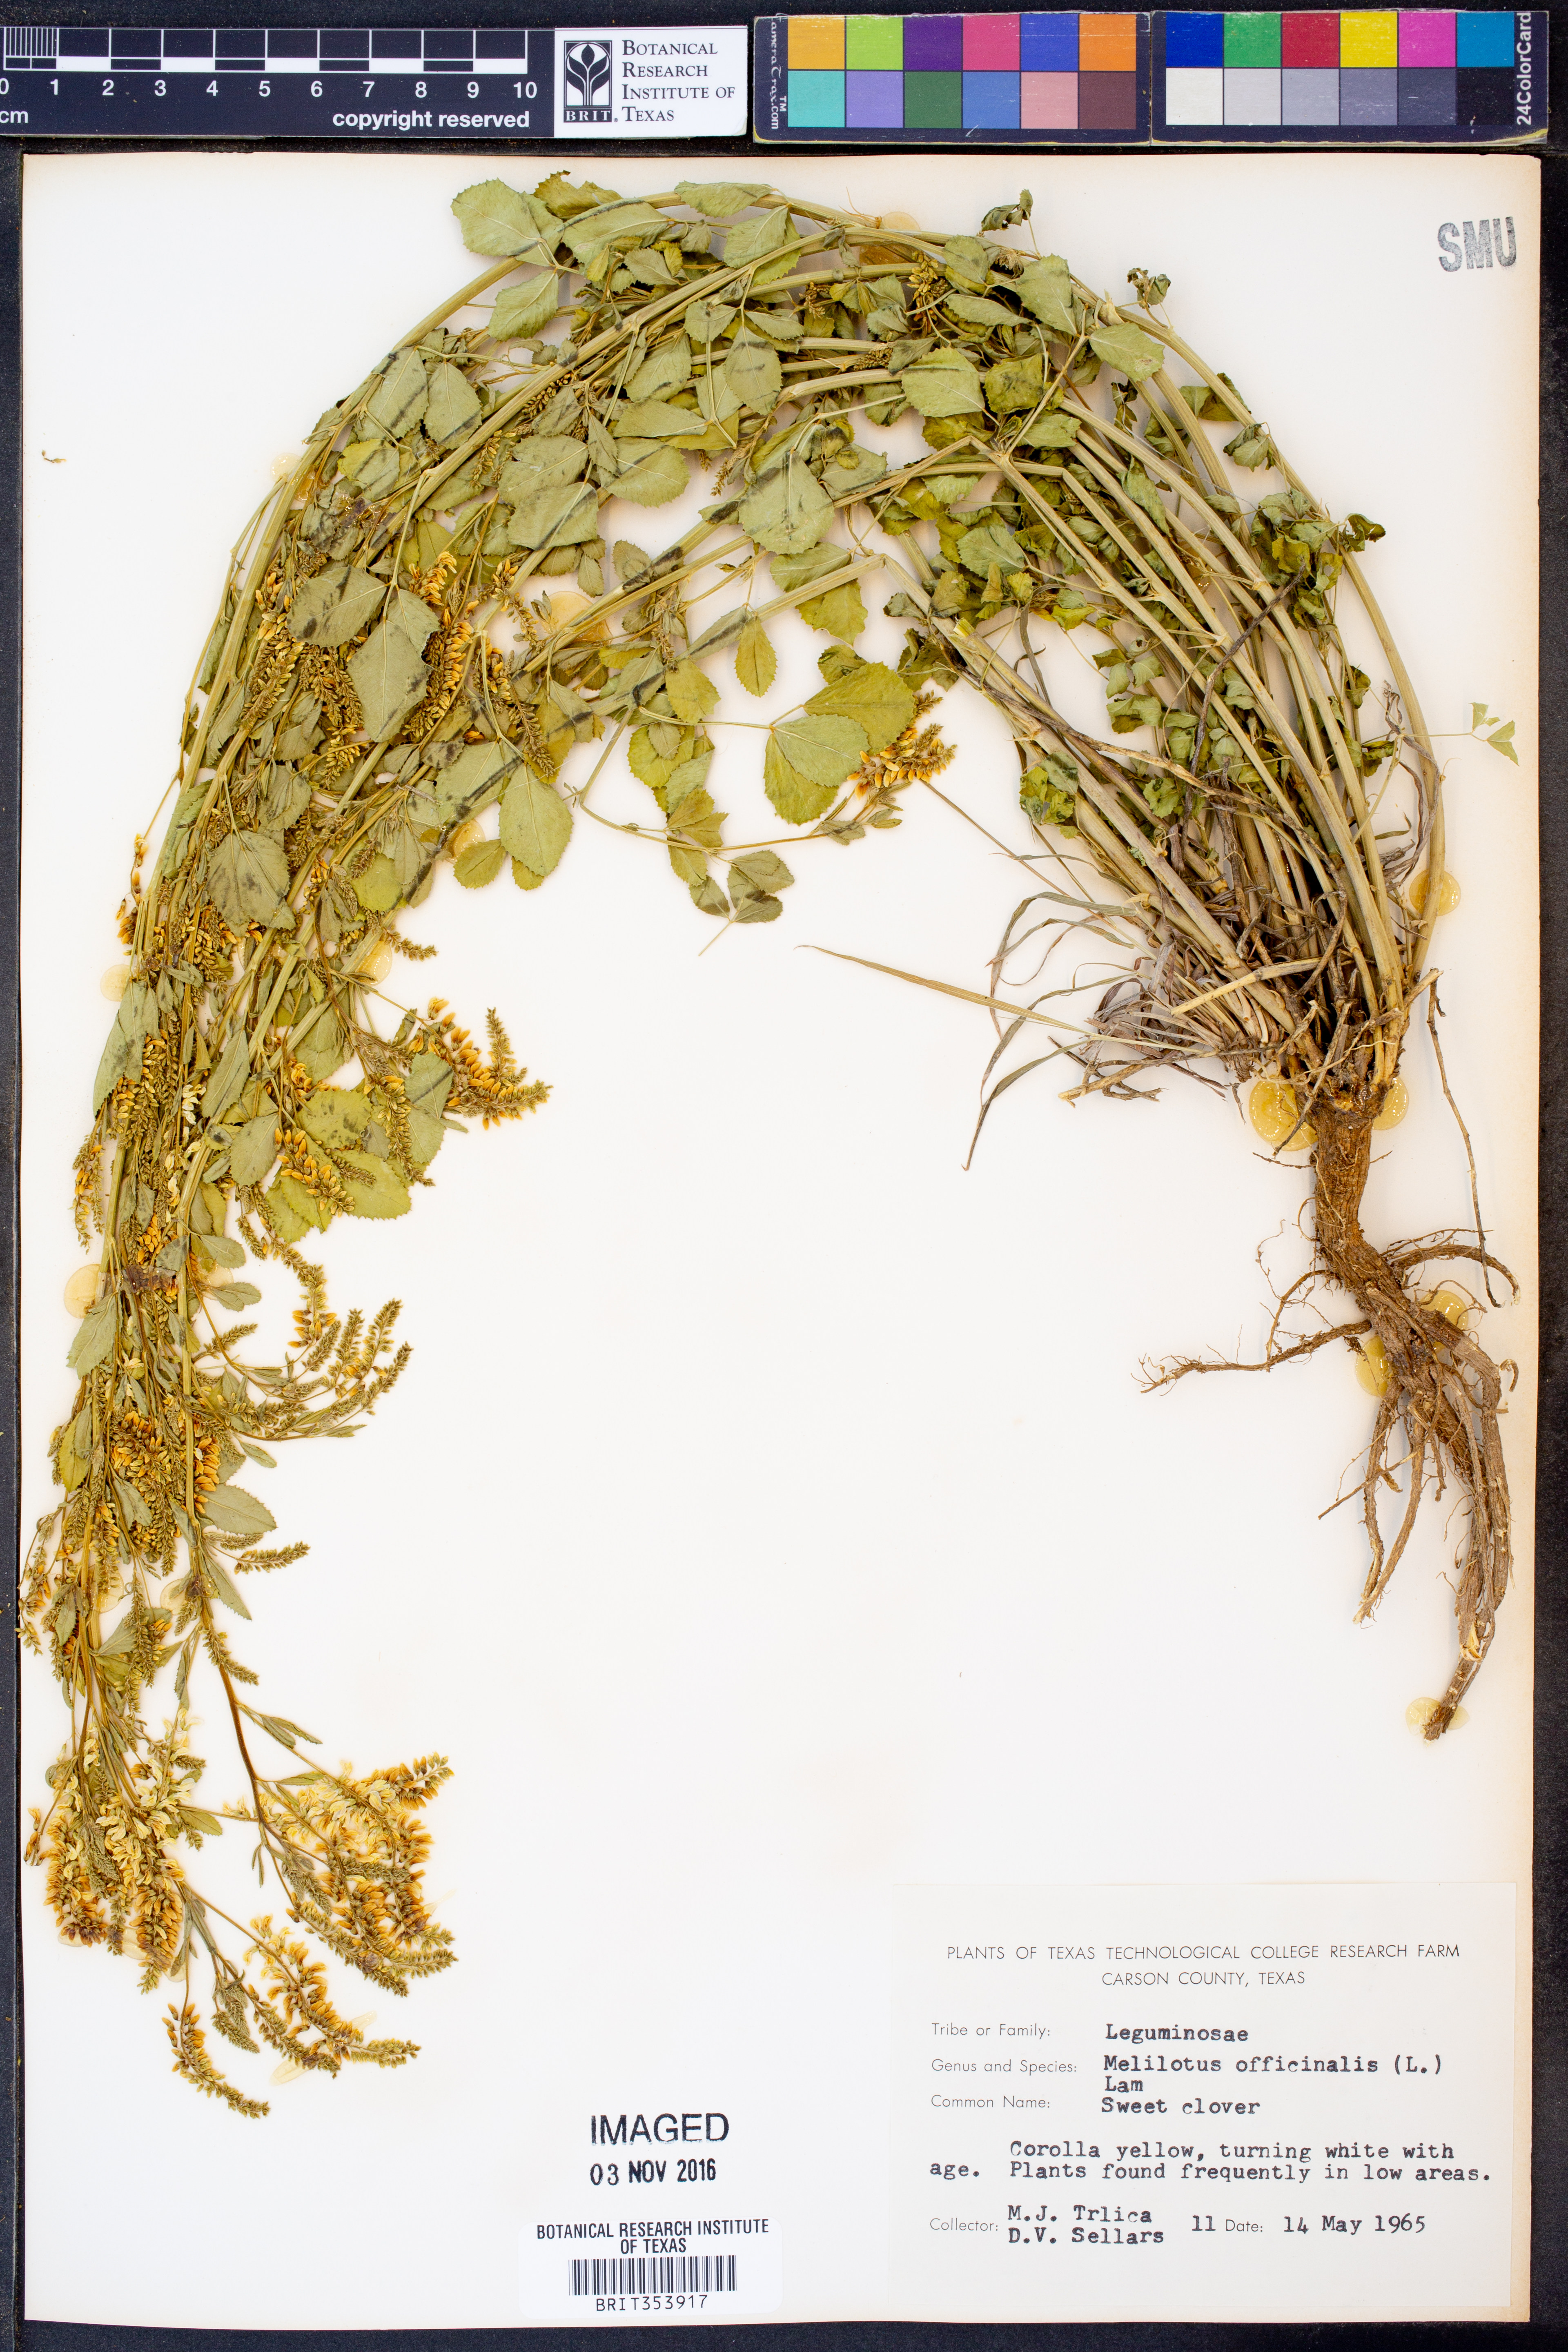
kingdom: Plantae
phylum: Tracheophyta
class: Magnoliopsida
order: Fabales
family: Fabaceae
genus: Melilotus
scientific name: Melilotus officinalis
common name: Sweetclover
